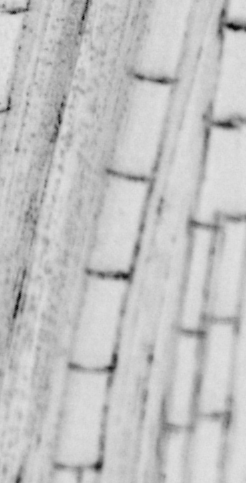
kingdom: Animalia
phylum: Chordata
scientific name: Chordata
